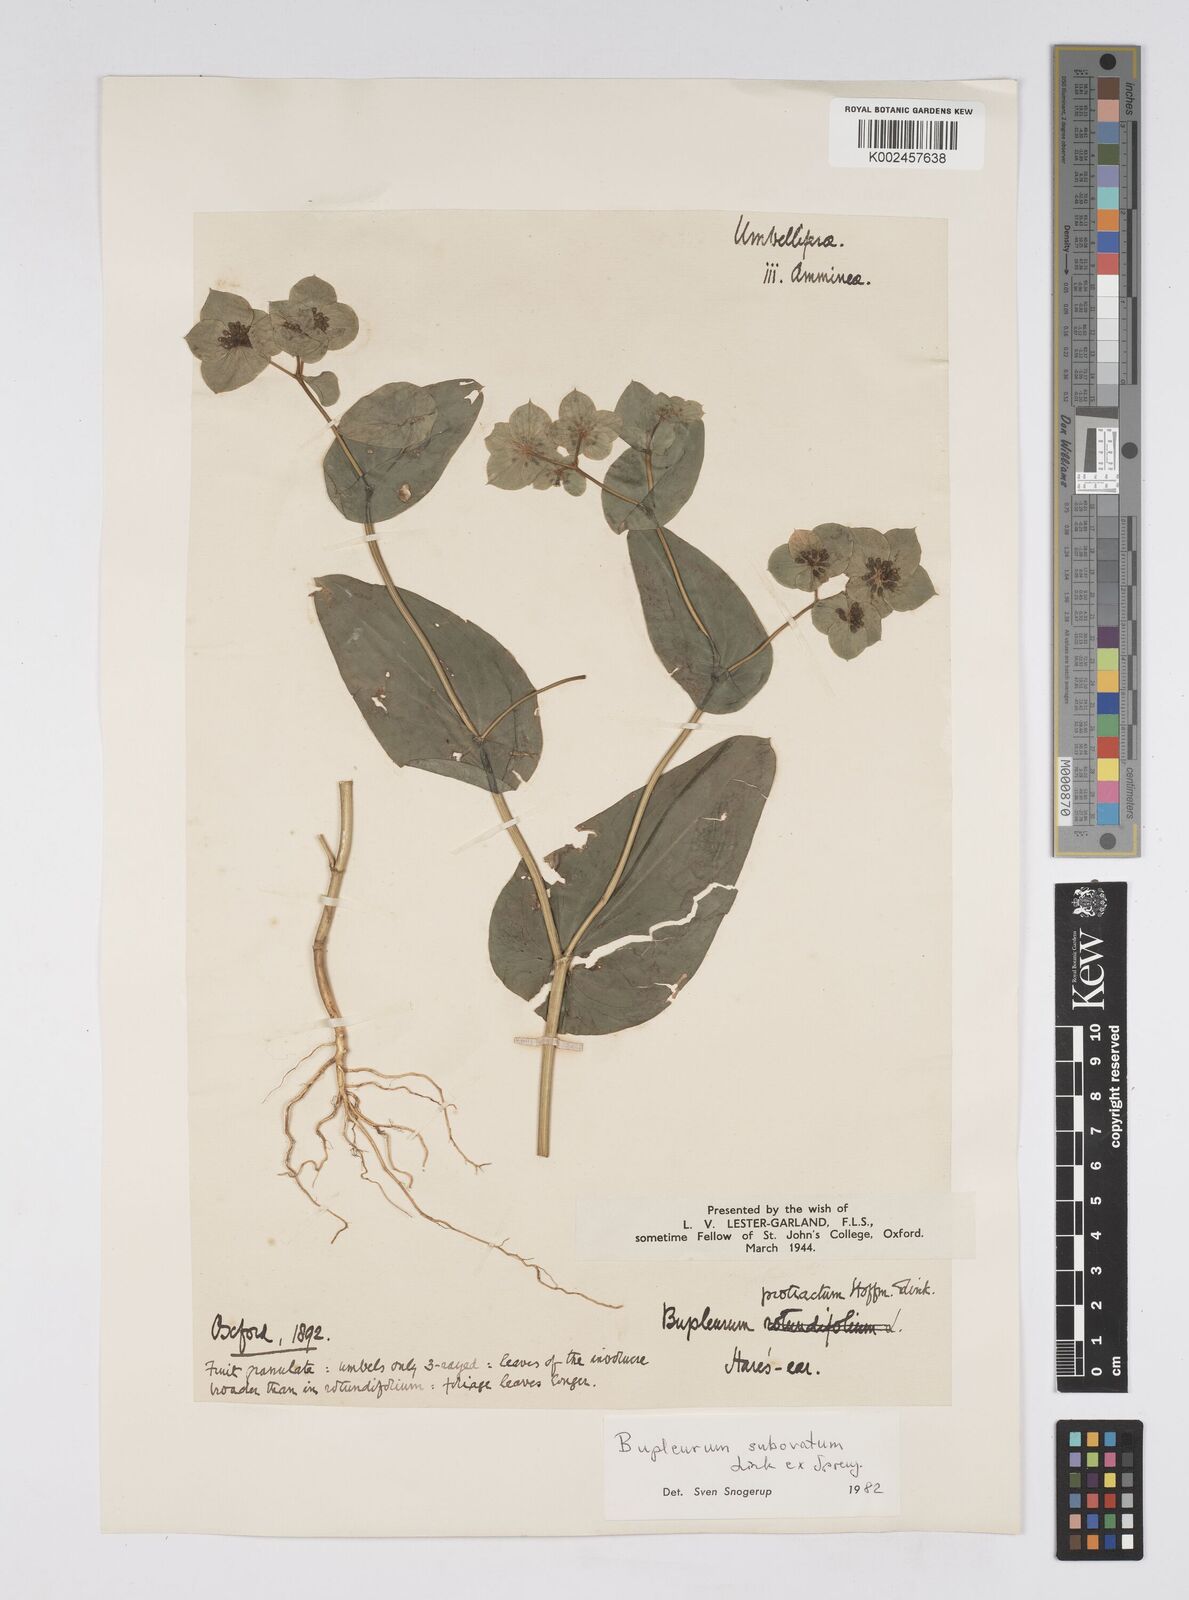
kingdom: Plantae
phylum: Tracheophyta
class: Magnoliopsida
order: Apiales
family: Apiaceae
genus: Bupleurum
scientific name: Bupleurum subovatum
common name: False thorow-wax
